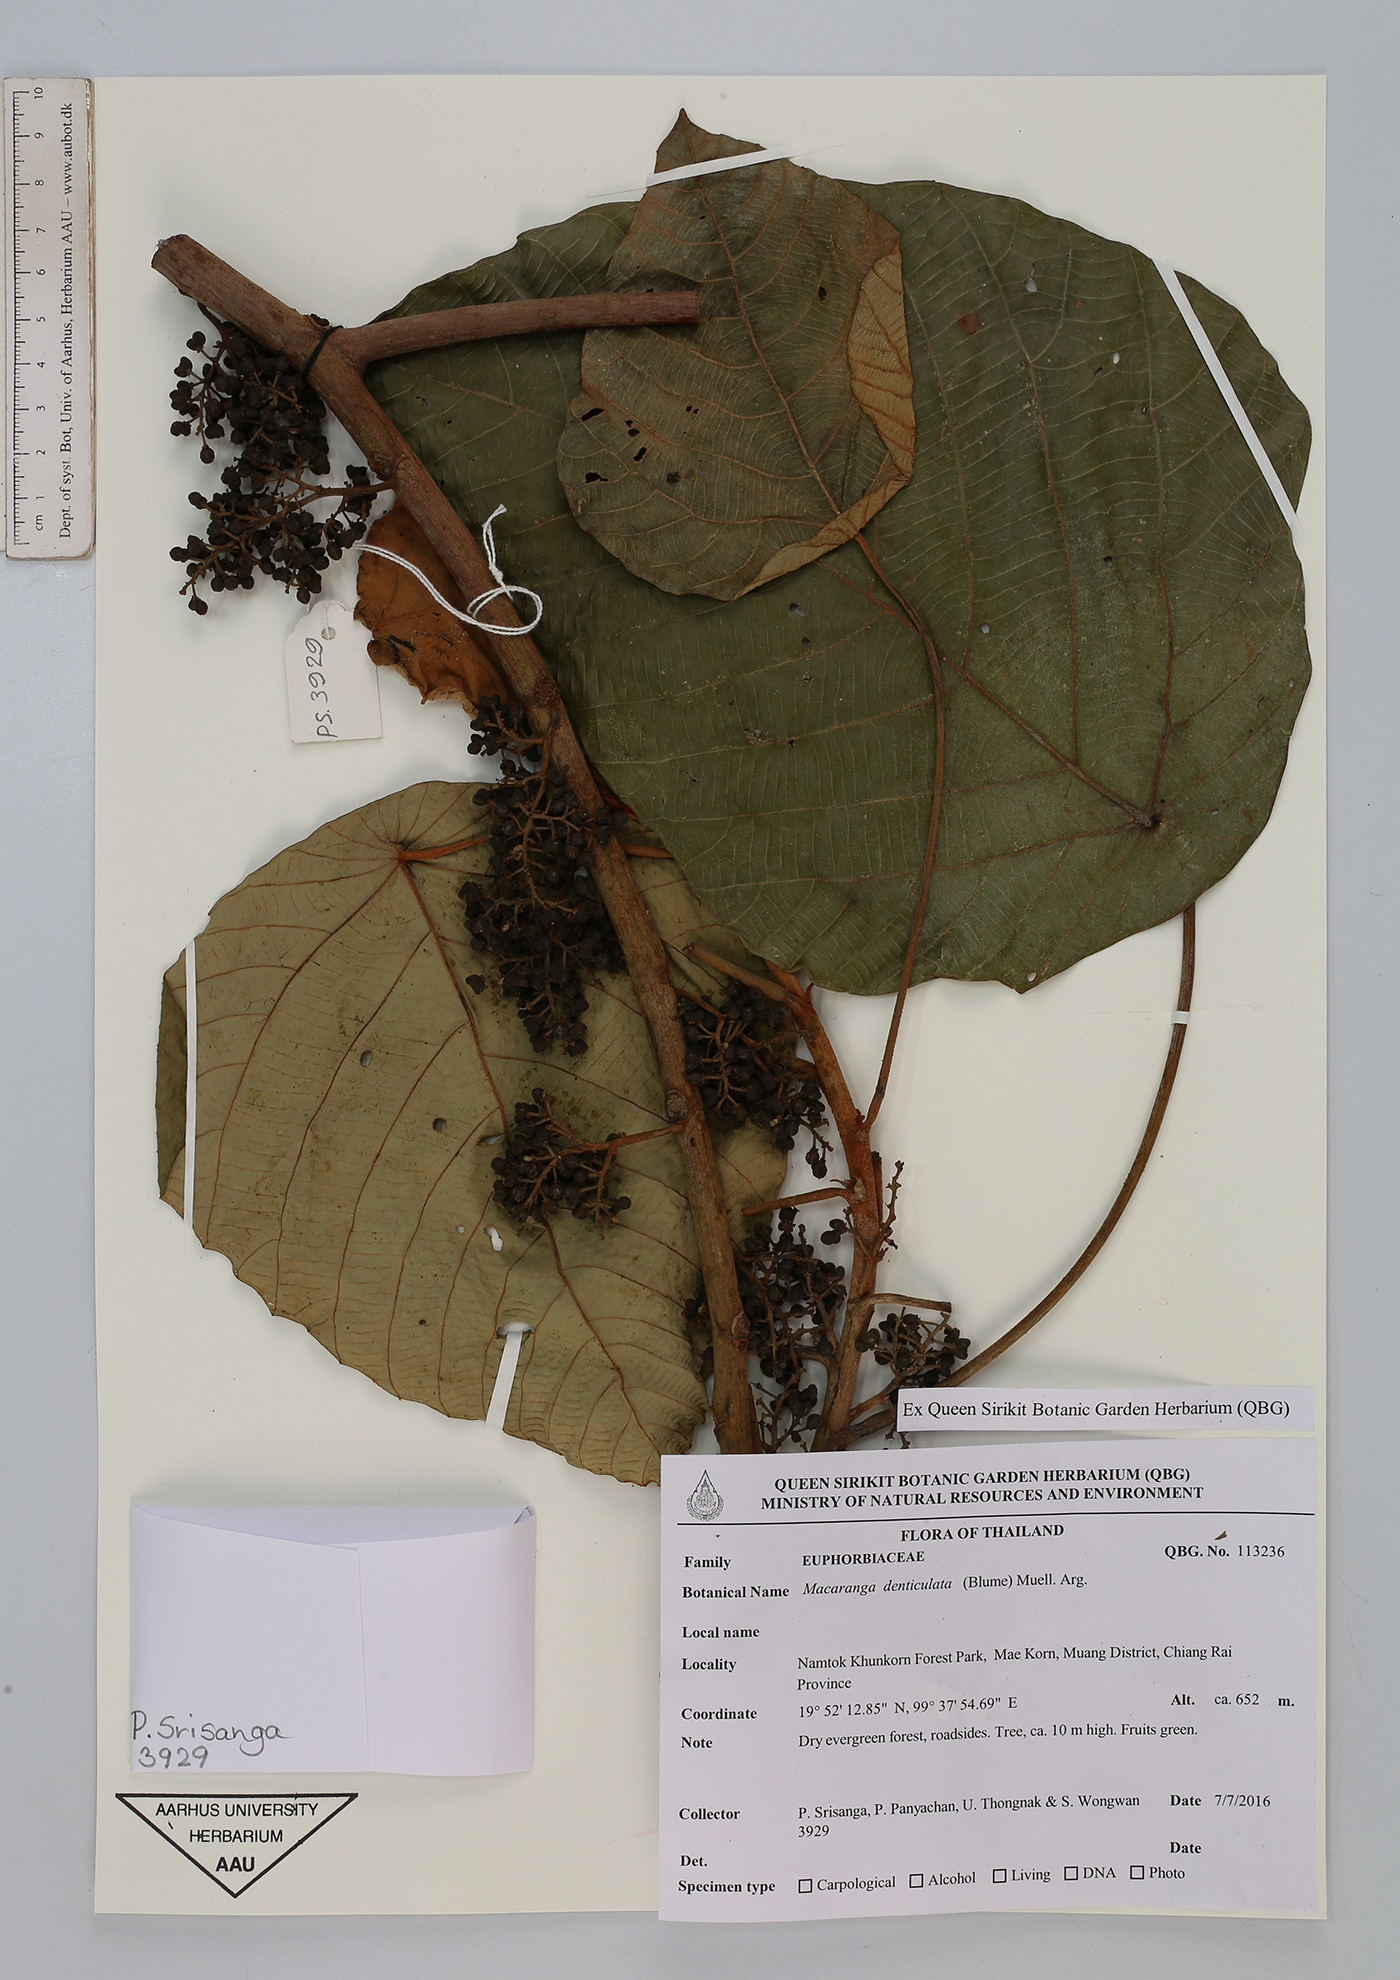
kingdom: Plantae
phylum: Tracheophyta
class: Magnoliopsida
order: Malpighiales
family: Euphorbiaceae
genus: Macaranga
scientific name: Macaranga denticulata
